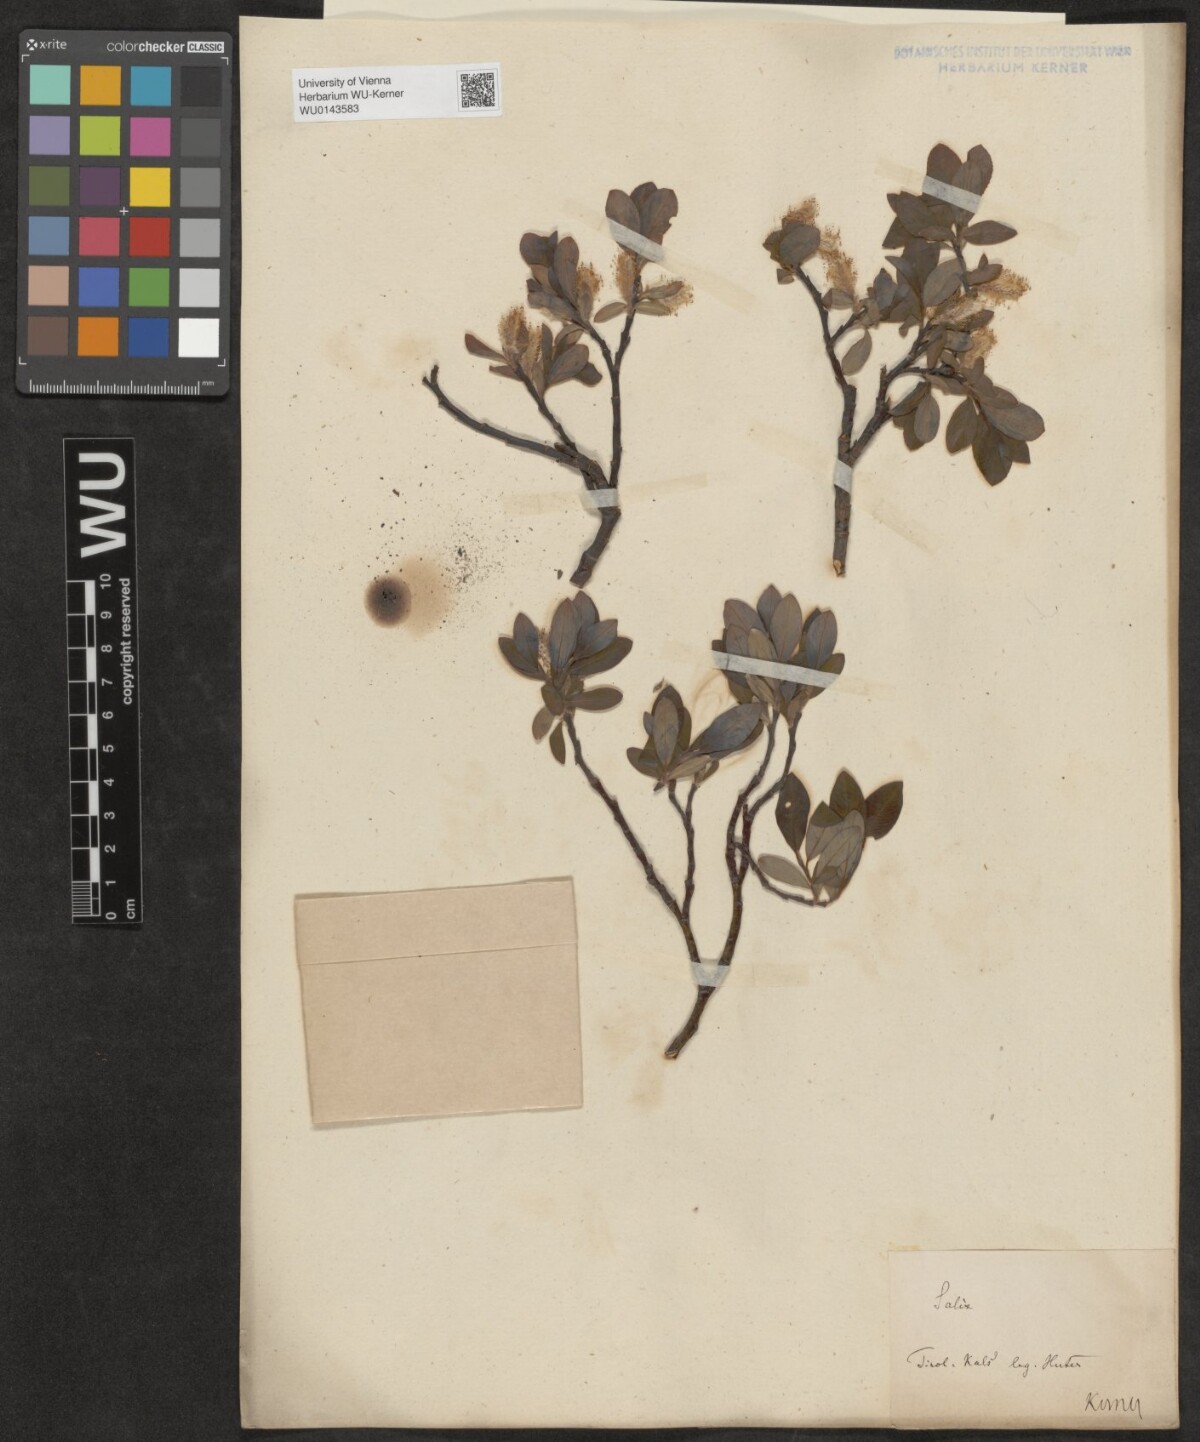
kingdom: Plantae
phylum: Tracheophyta
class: Magnoliopsida
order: Malpighiales
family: Salicaceae
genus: Salix
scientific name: Salix waldsteiniana
